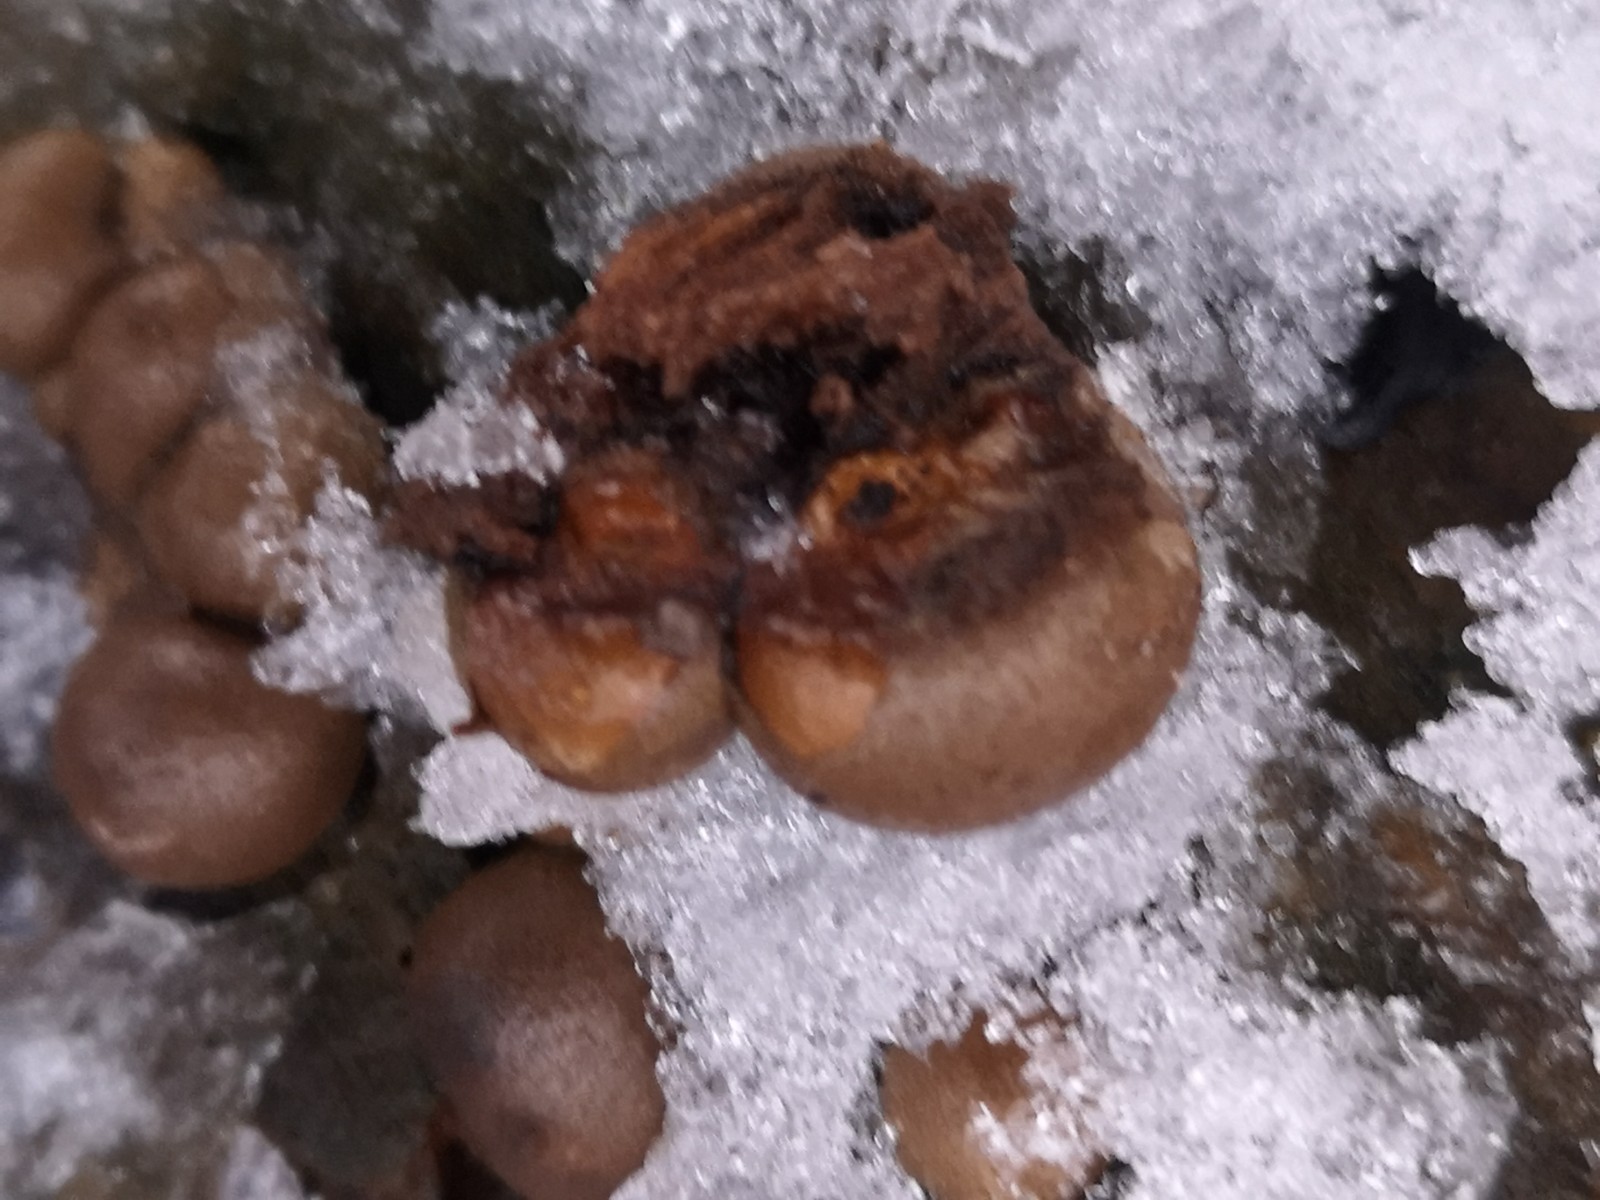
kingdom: Protozoa
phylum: Mycetozoa
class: Myxomycetes
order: Cribrariales
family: Tubiferaceae
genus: Lycogala
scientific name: Lycogala epidendrum
